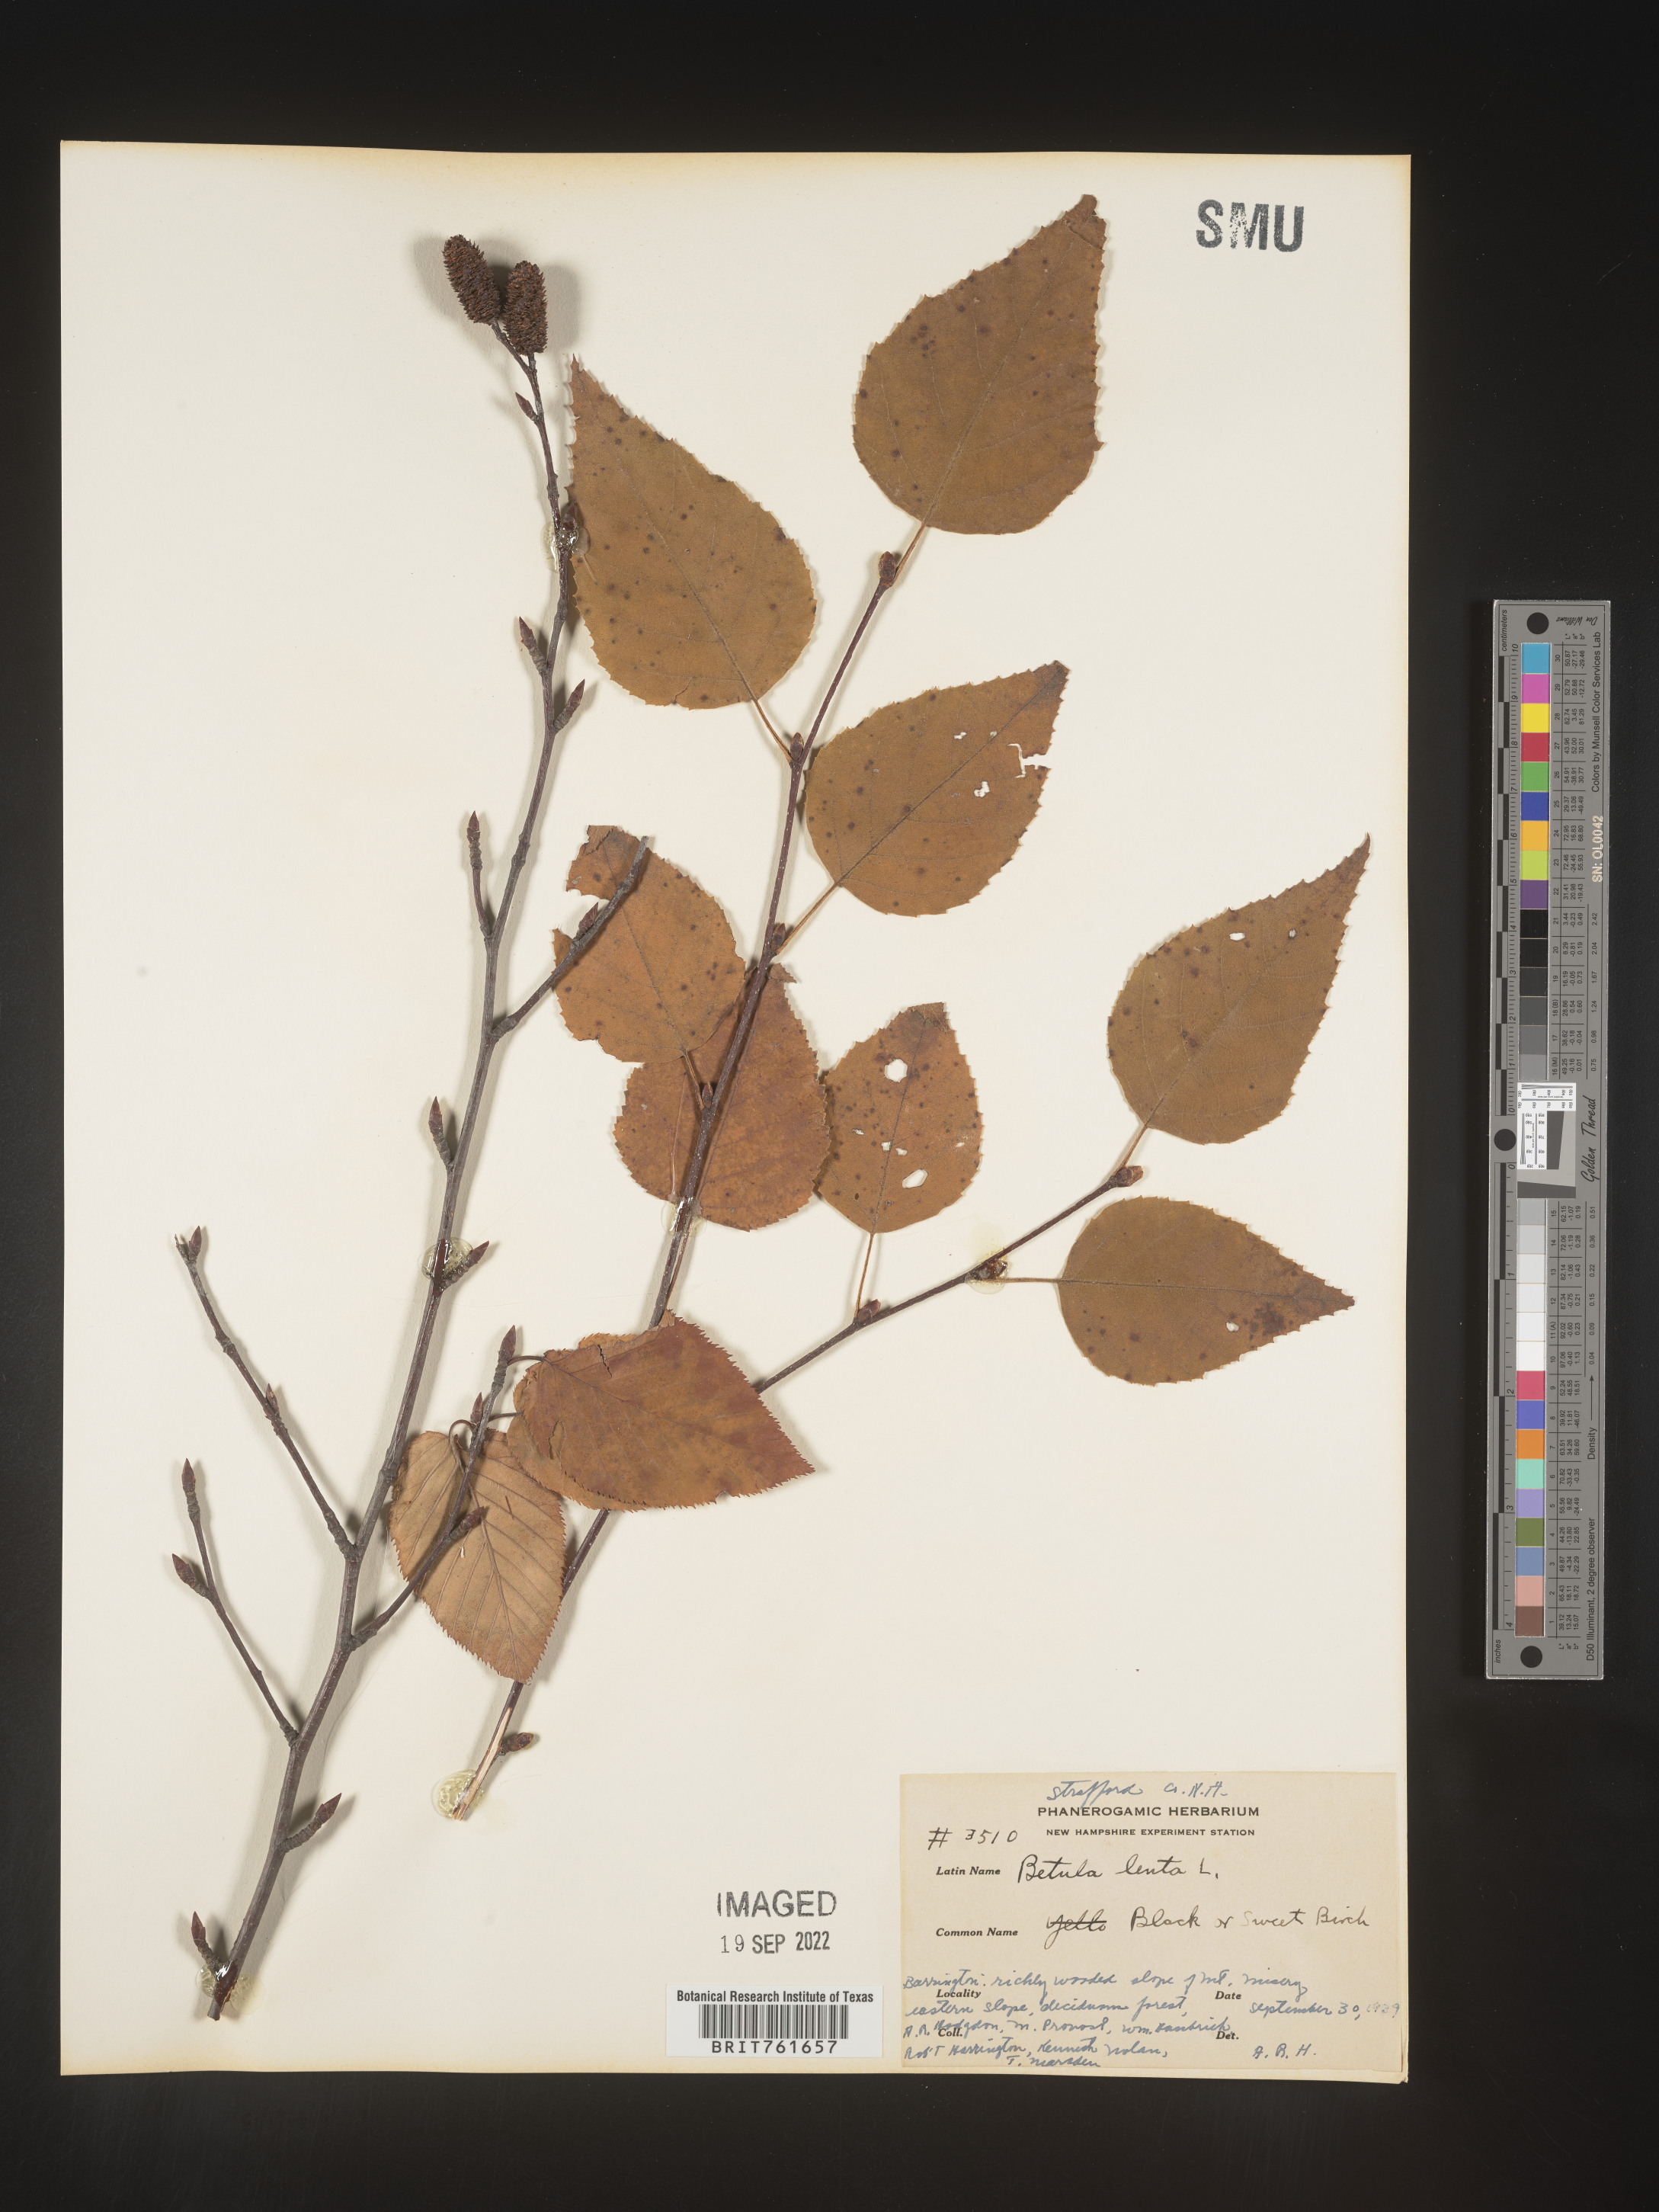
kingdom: Plantae
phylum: Tracheophyta
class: Magnoliopsida
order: Fagales
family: Betulaceae
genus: Betula
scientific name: Betula lenta
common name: Black birch
